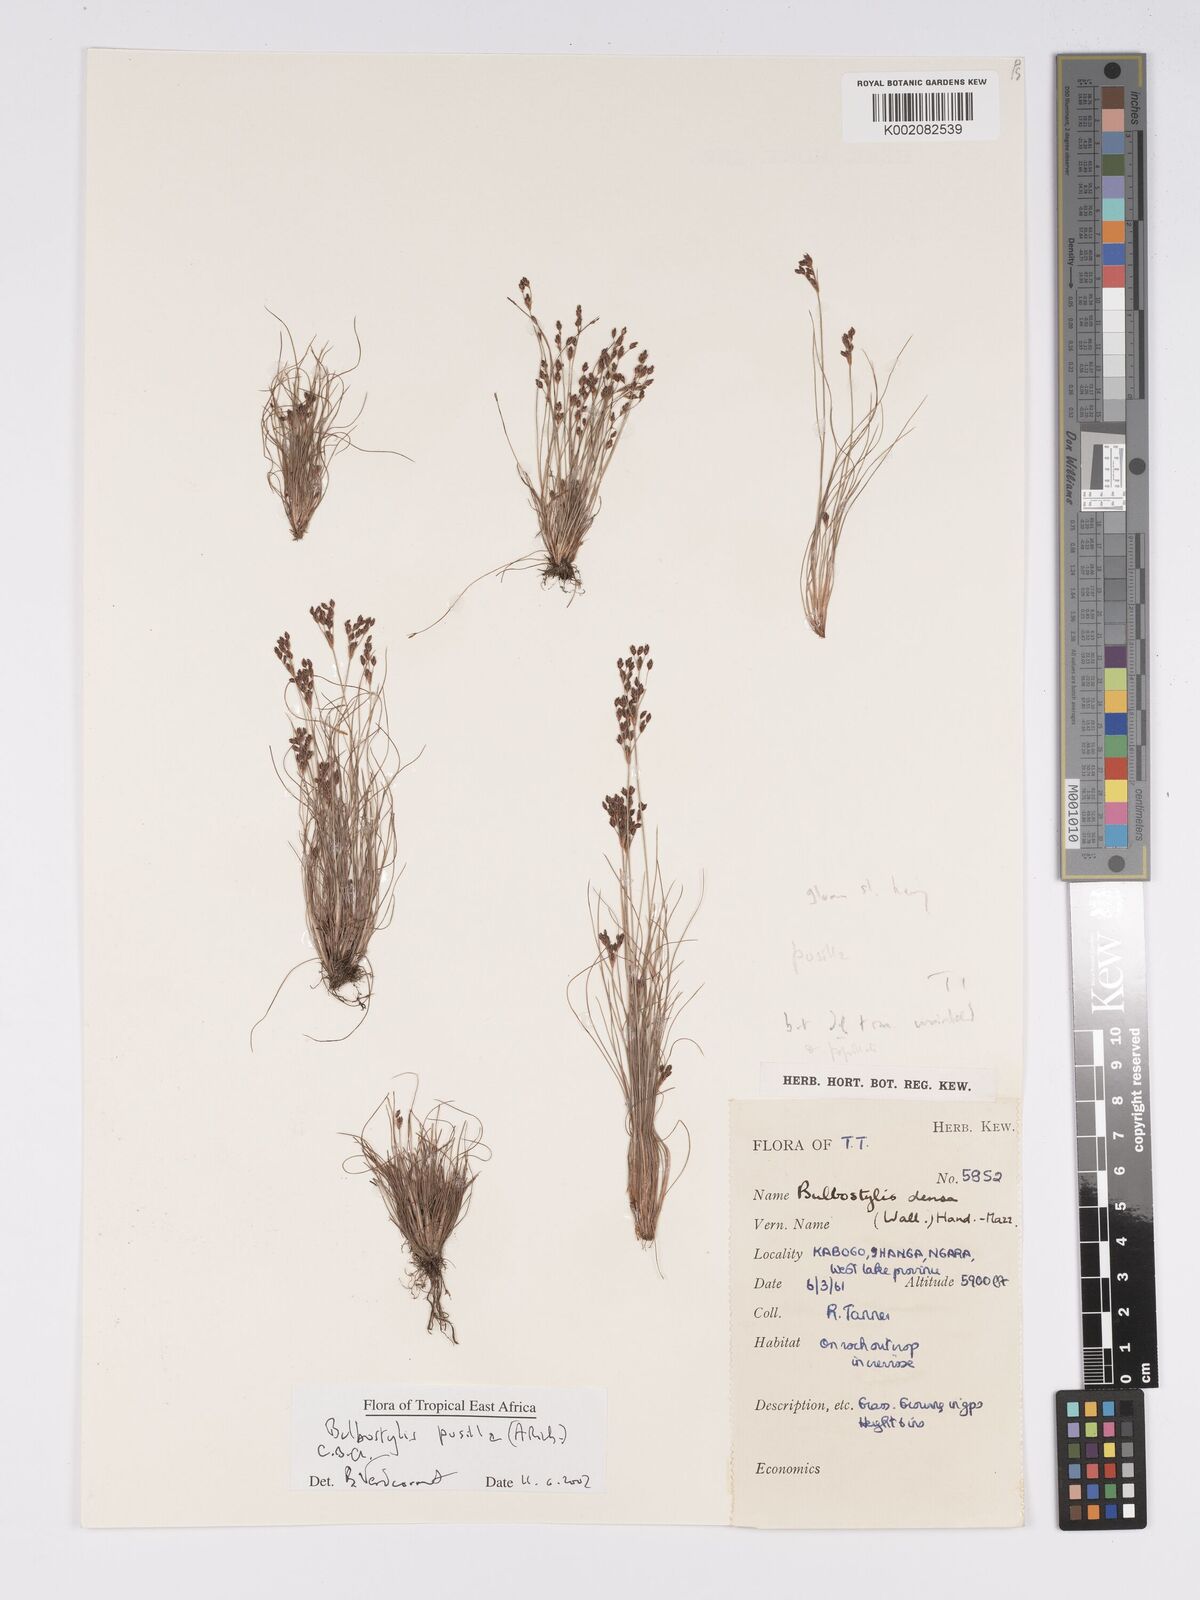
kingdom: Plantae
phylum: Tracheophyta
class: Liliopsida
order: Poales
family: Cyperaceae
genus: Bulbostylis
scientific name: Bulbostylis pusilla
